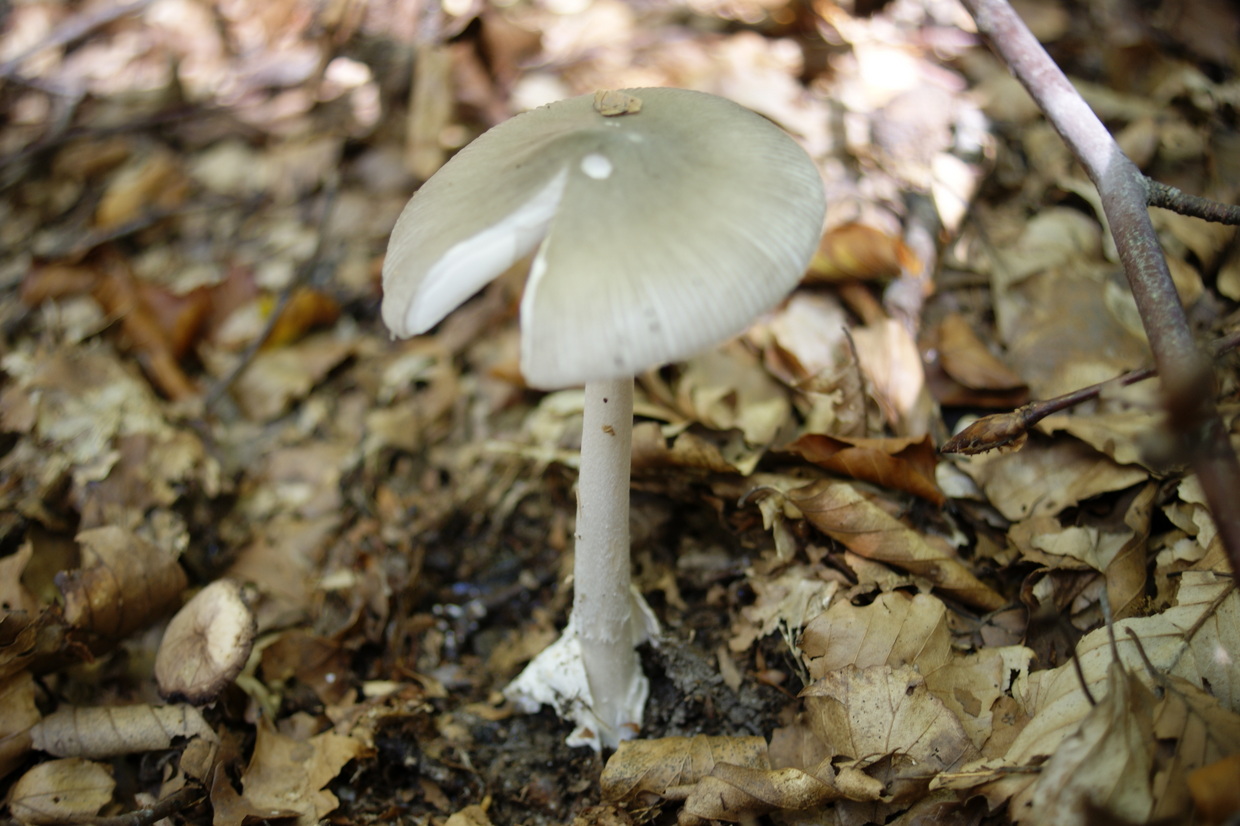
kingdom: Fungi
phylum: Basidiomycota
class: Agaricomycetes
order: Agaricales
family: Amanitaceae
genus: Amanita
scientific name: Amanita vaginata
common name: grå kam-fluesvamp
